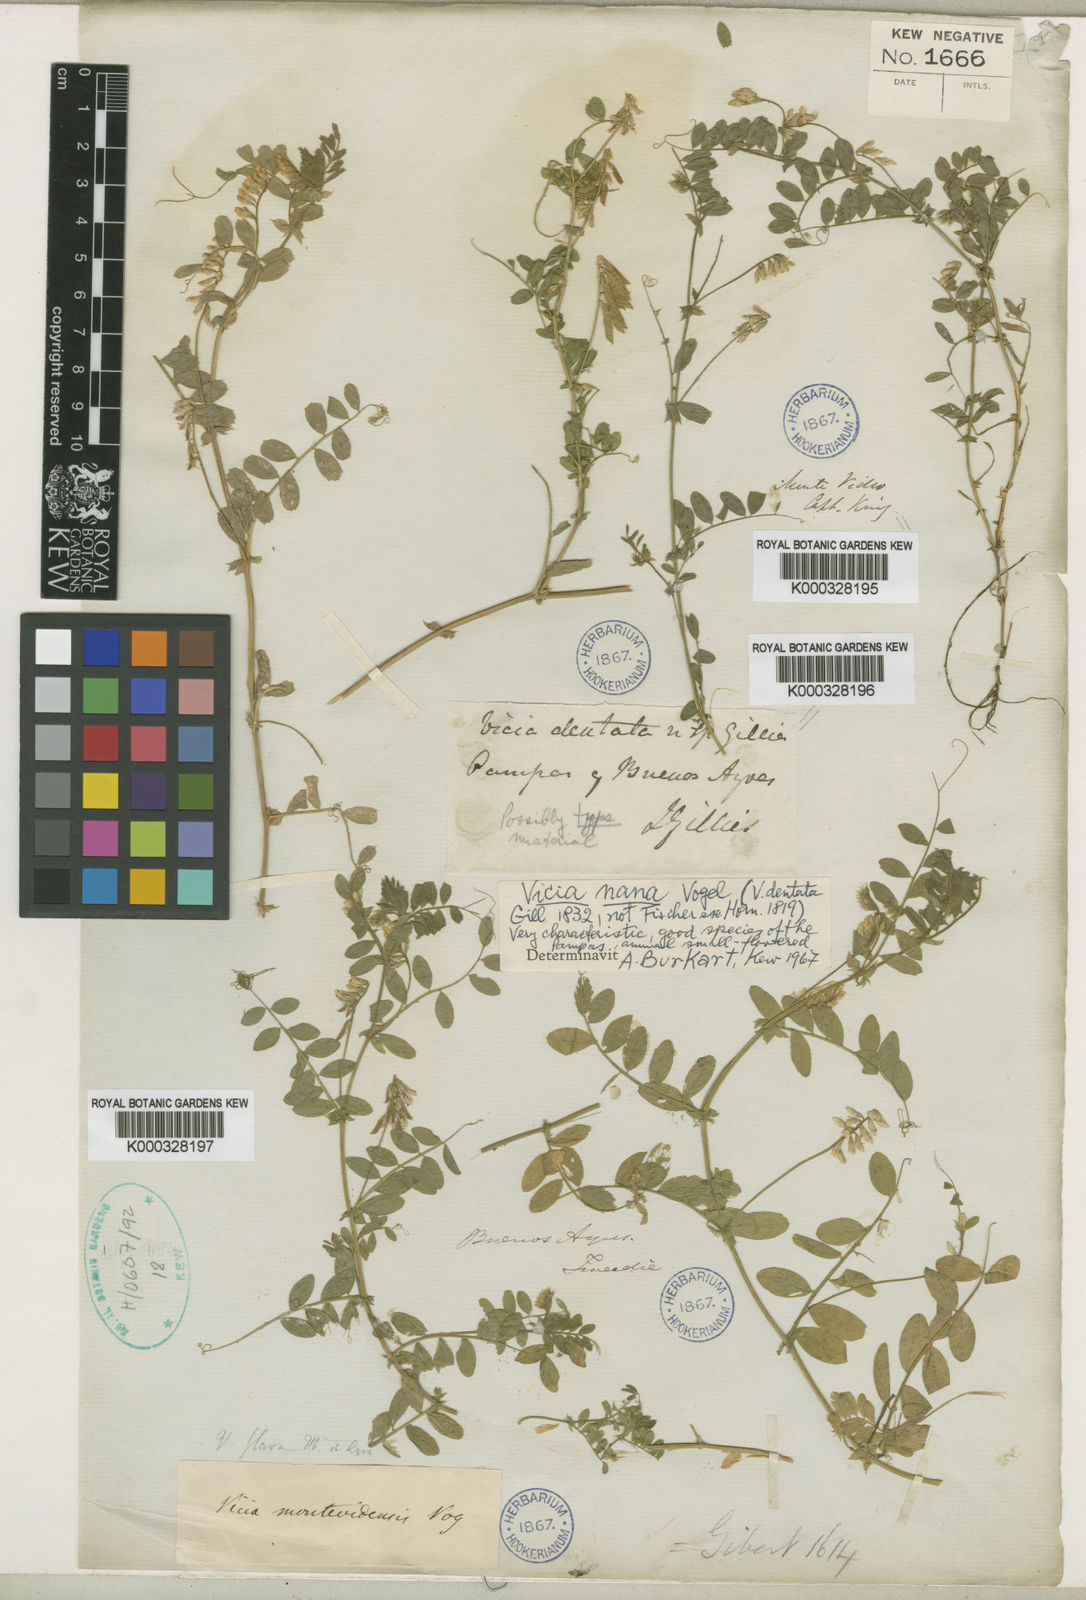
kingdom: Plantae
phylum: Tracheophyta
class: Magnoliopsida
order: Fabales
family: Fabaceae
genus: Vicia
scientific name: Vicia nana
